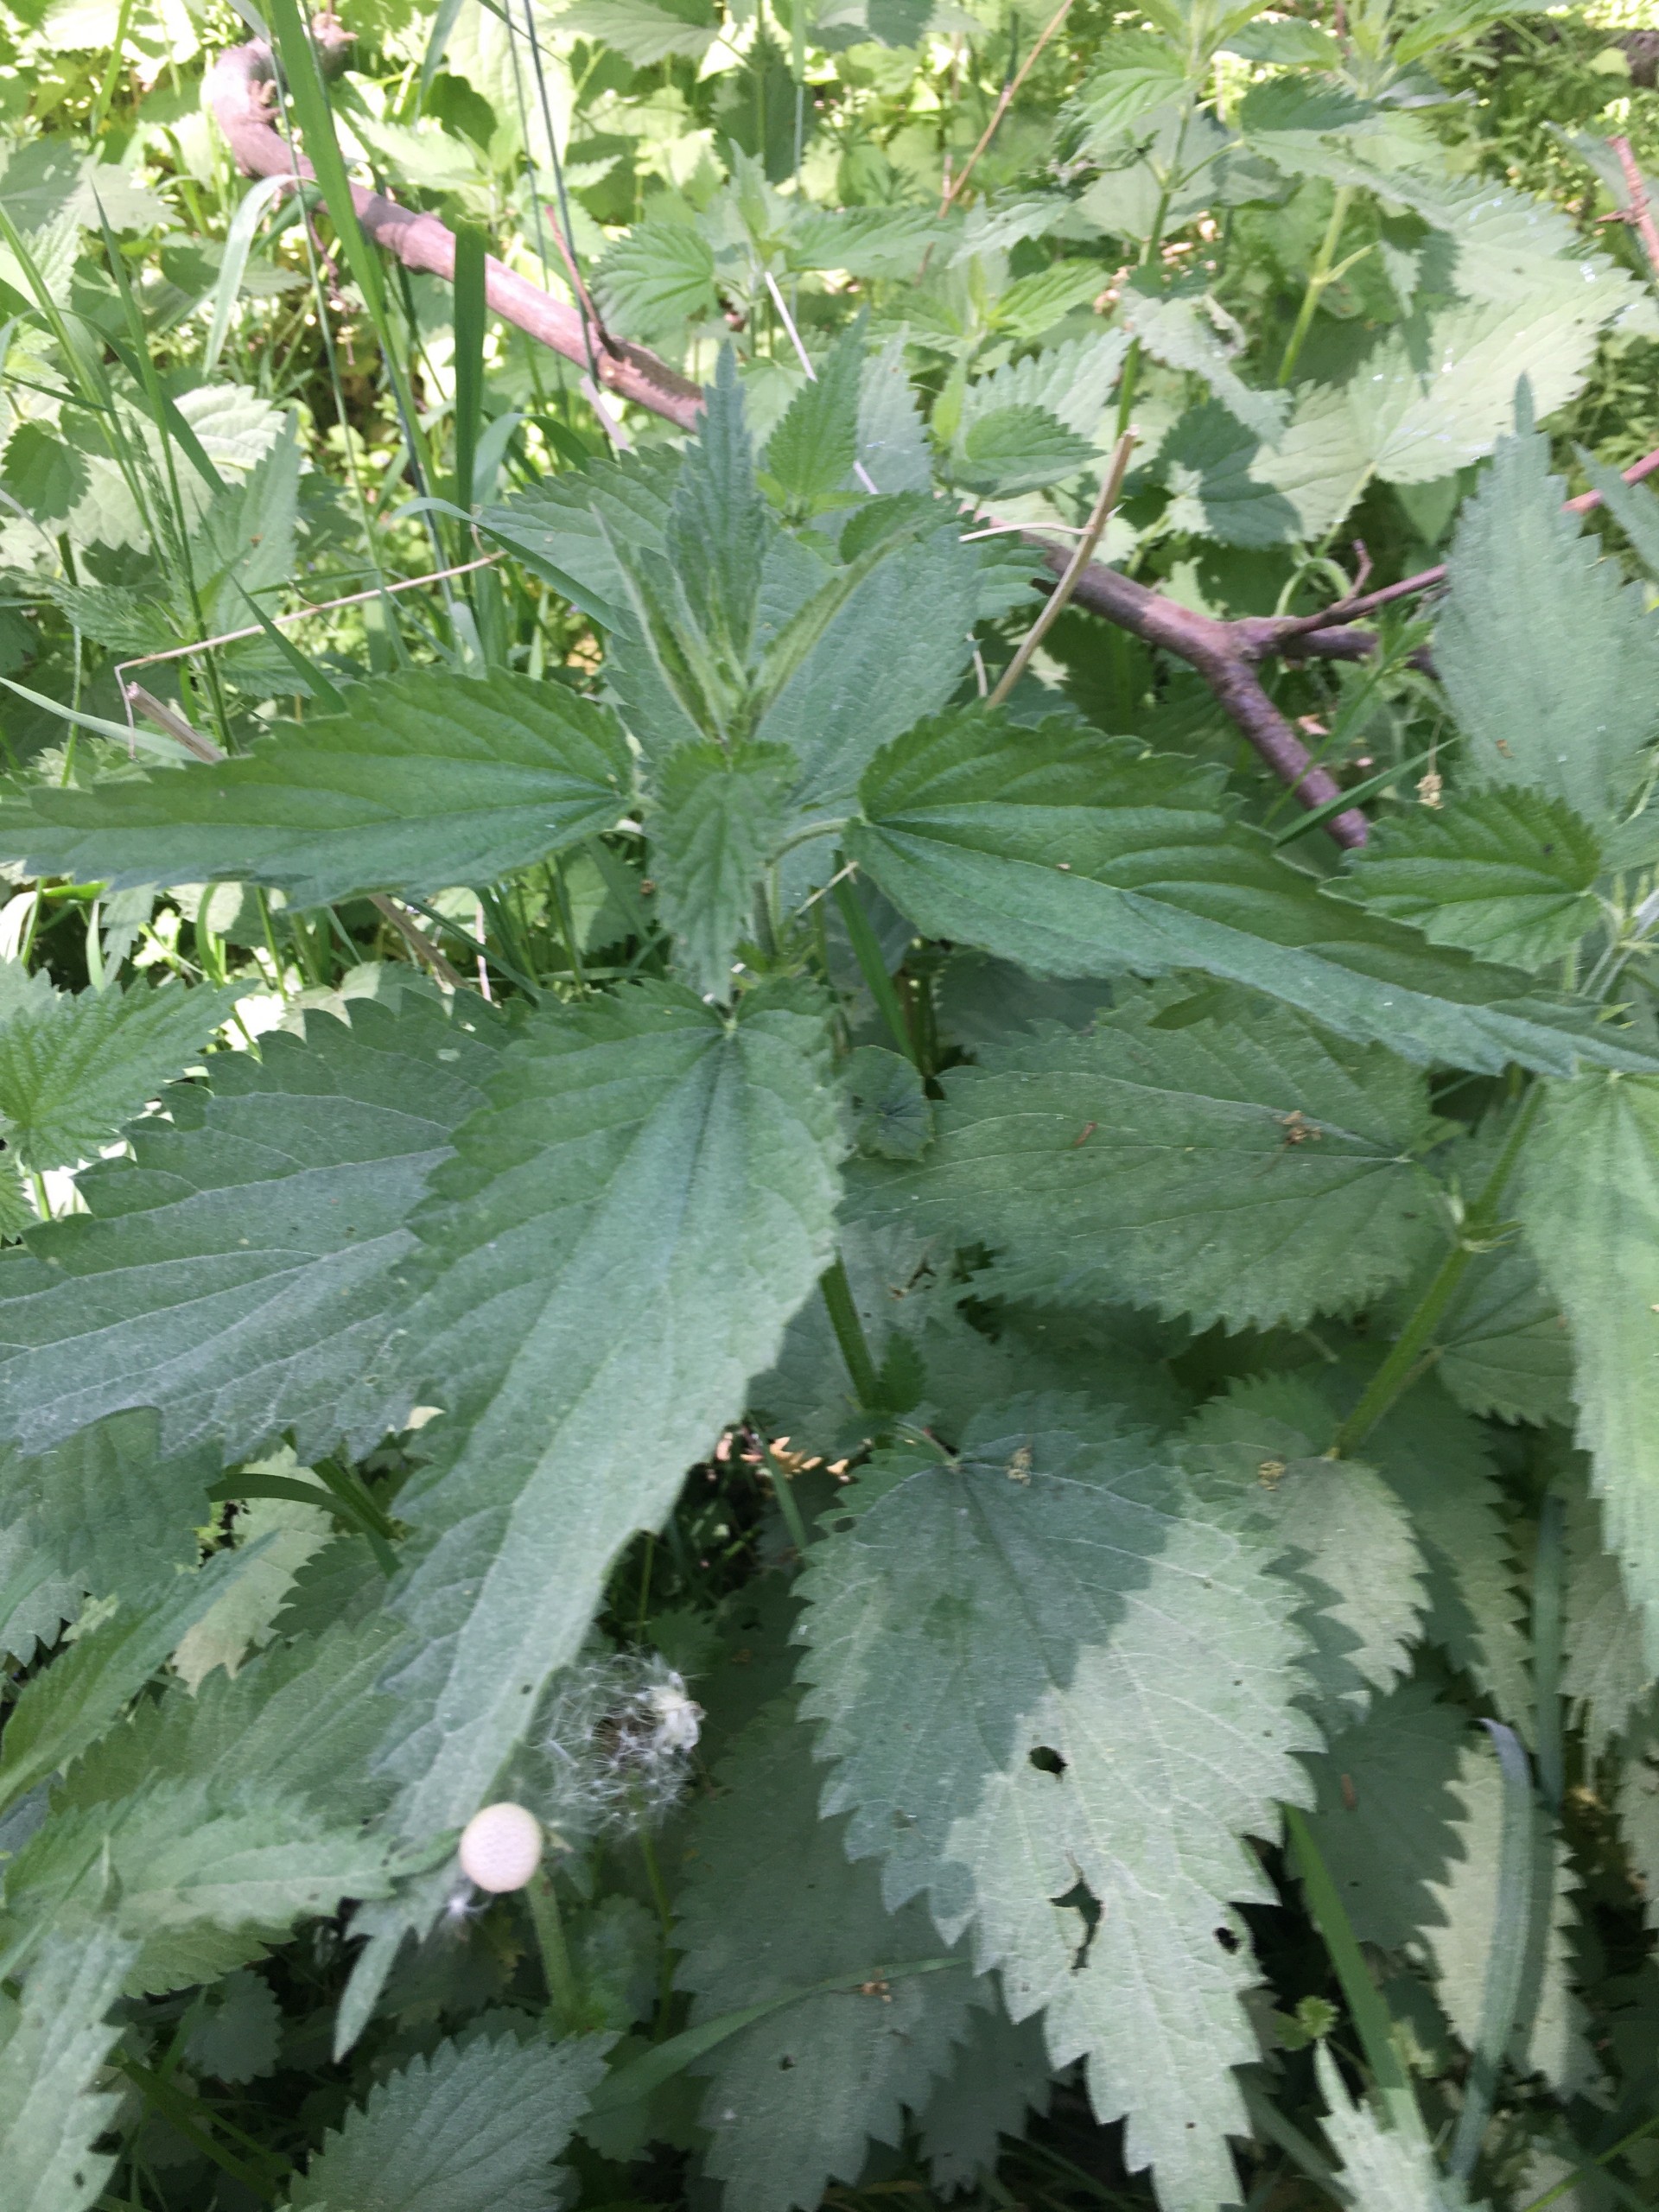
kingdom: Plantae
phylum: Tracheophyta
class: Magnoliopsida
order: Rosales
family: Urticaceae
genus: Urtica
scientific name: Urtica dioica
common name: Stor nælde
